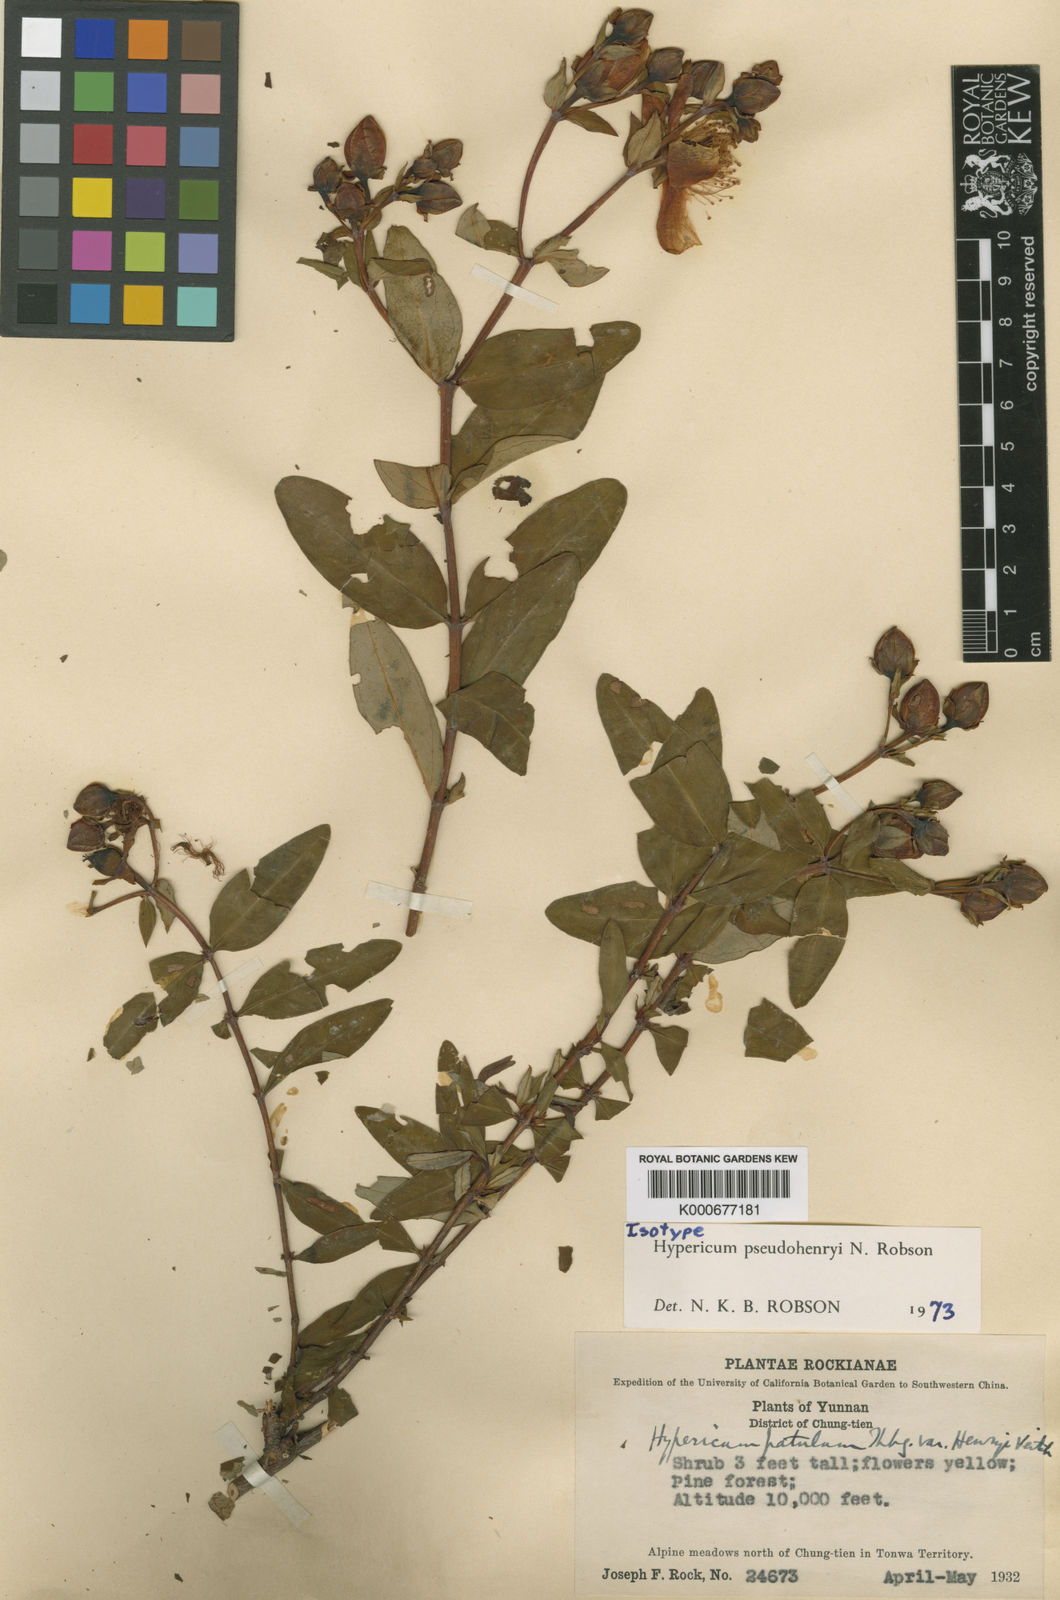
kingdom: Plantae
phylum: Tracheophyta
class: Magnoliopsida
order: Malpighiales
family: Hypericaceae
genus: Hypericum
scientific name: Hypericum pseudohenryi
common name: Irish tutsan
